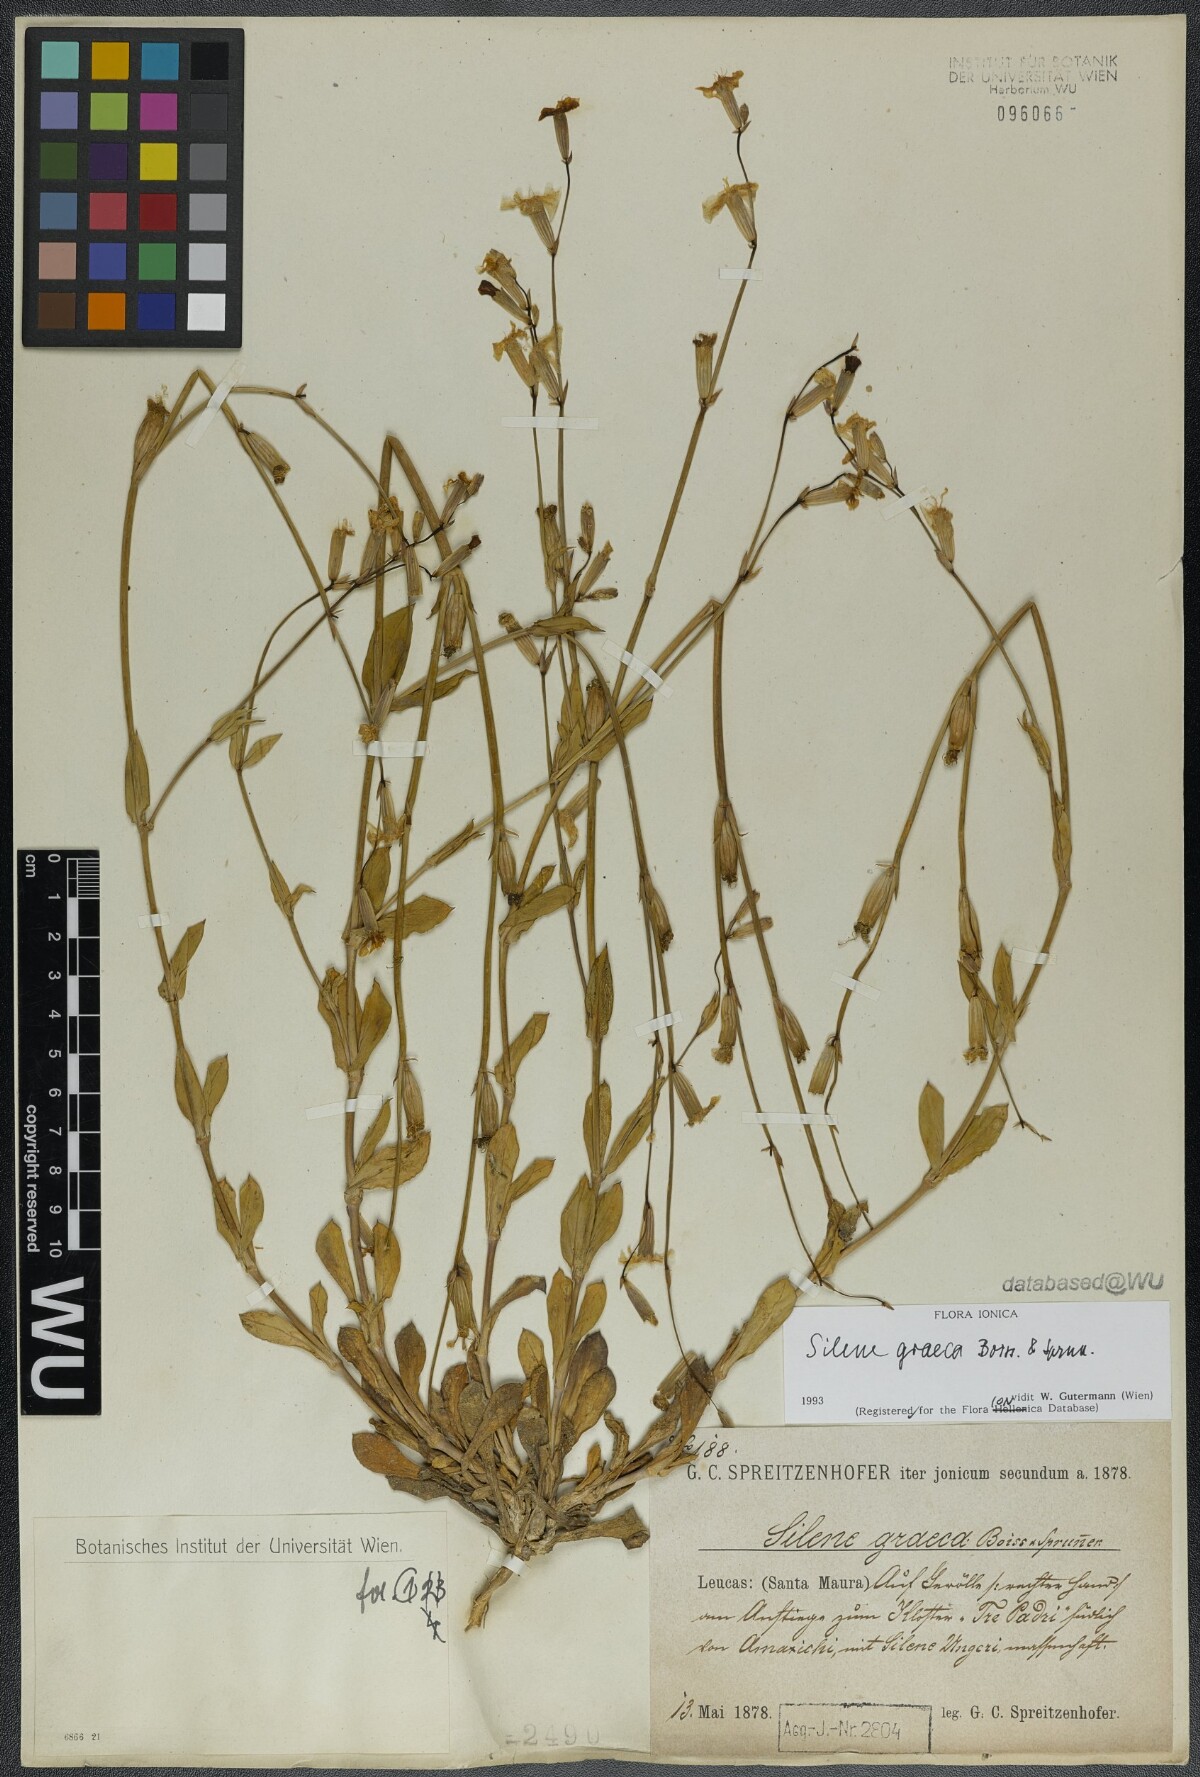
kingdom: Plantae
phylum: Tracheophyta
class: Magnoliopsida
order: Caryophyllales
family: Caryophyllaceae
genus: Silene
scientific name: Silene graeca
